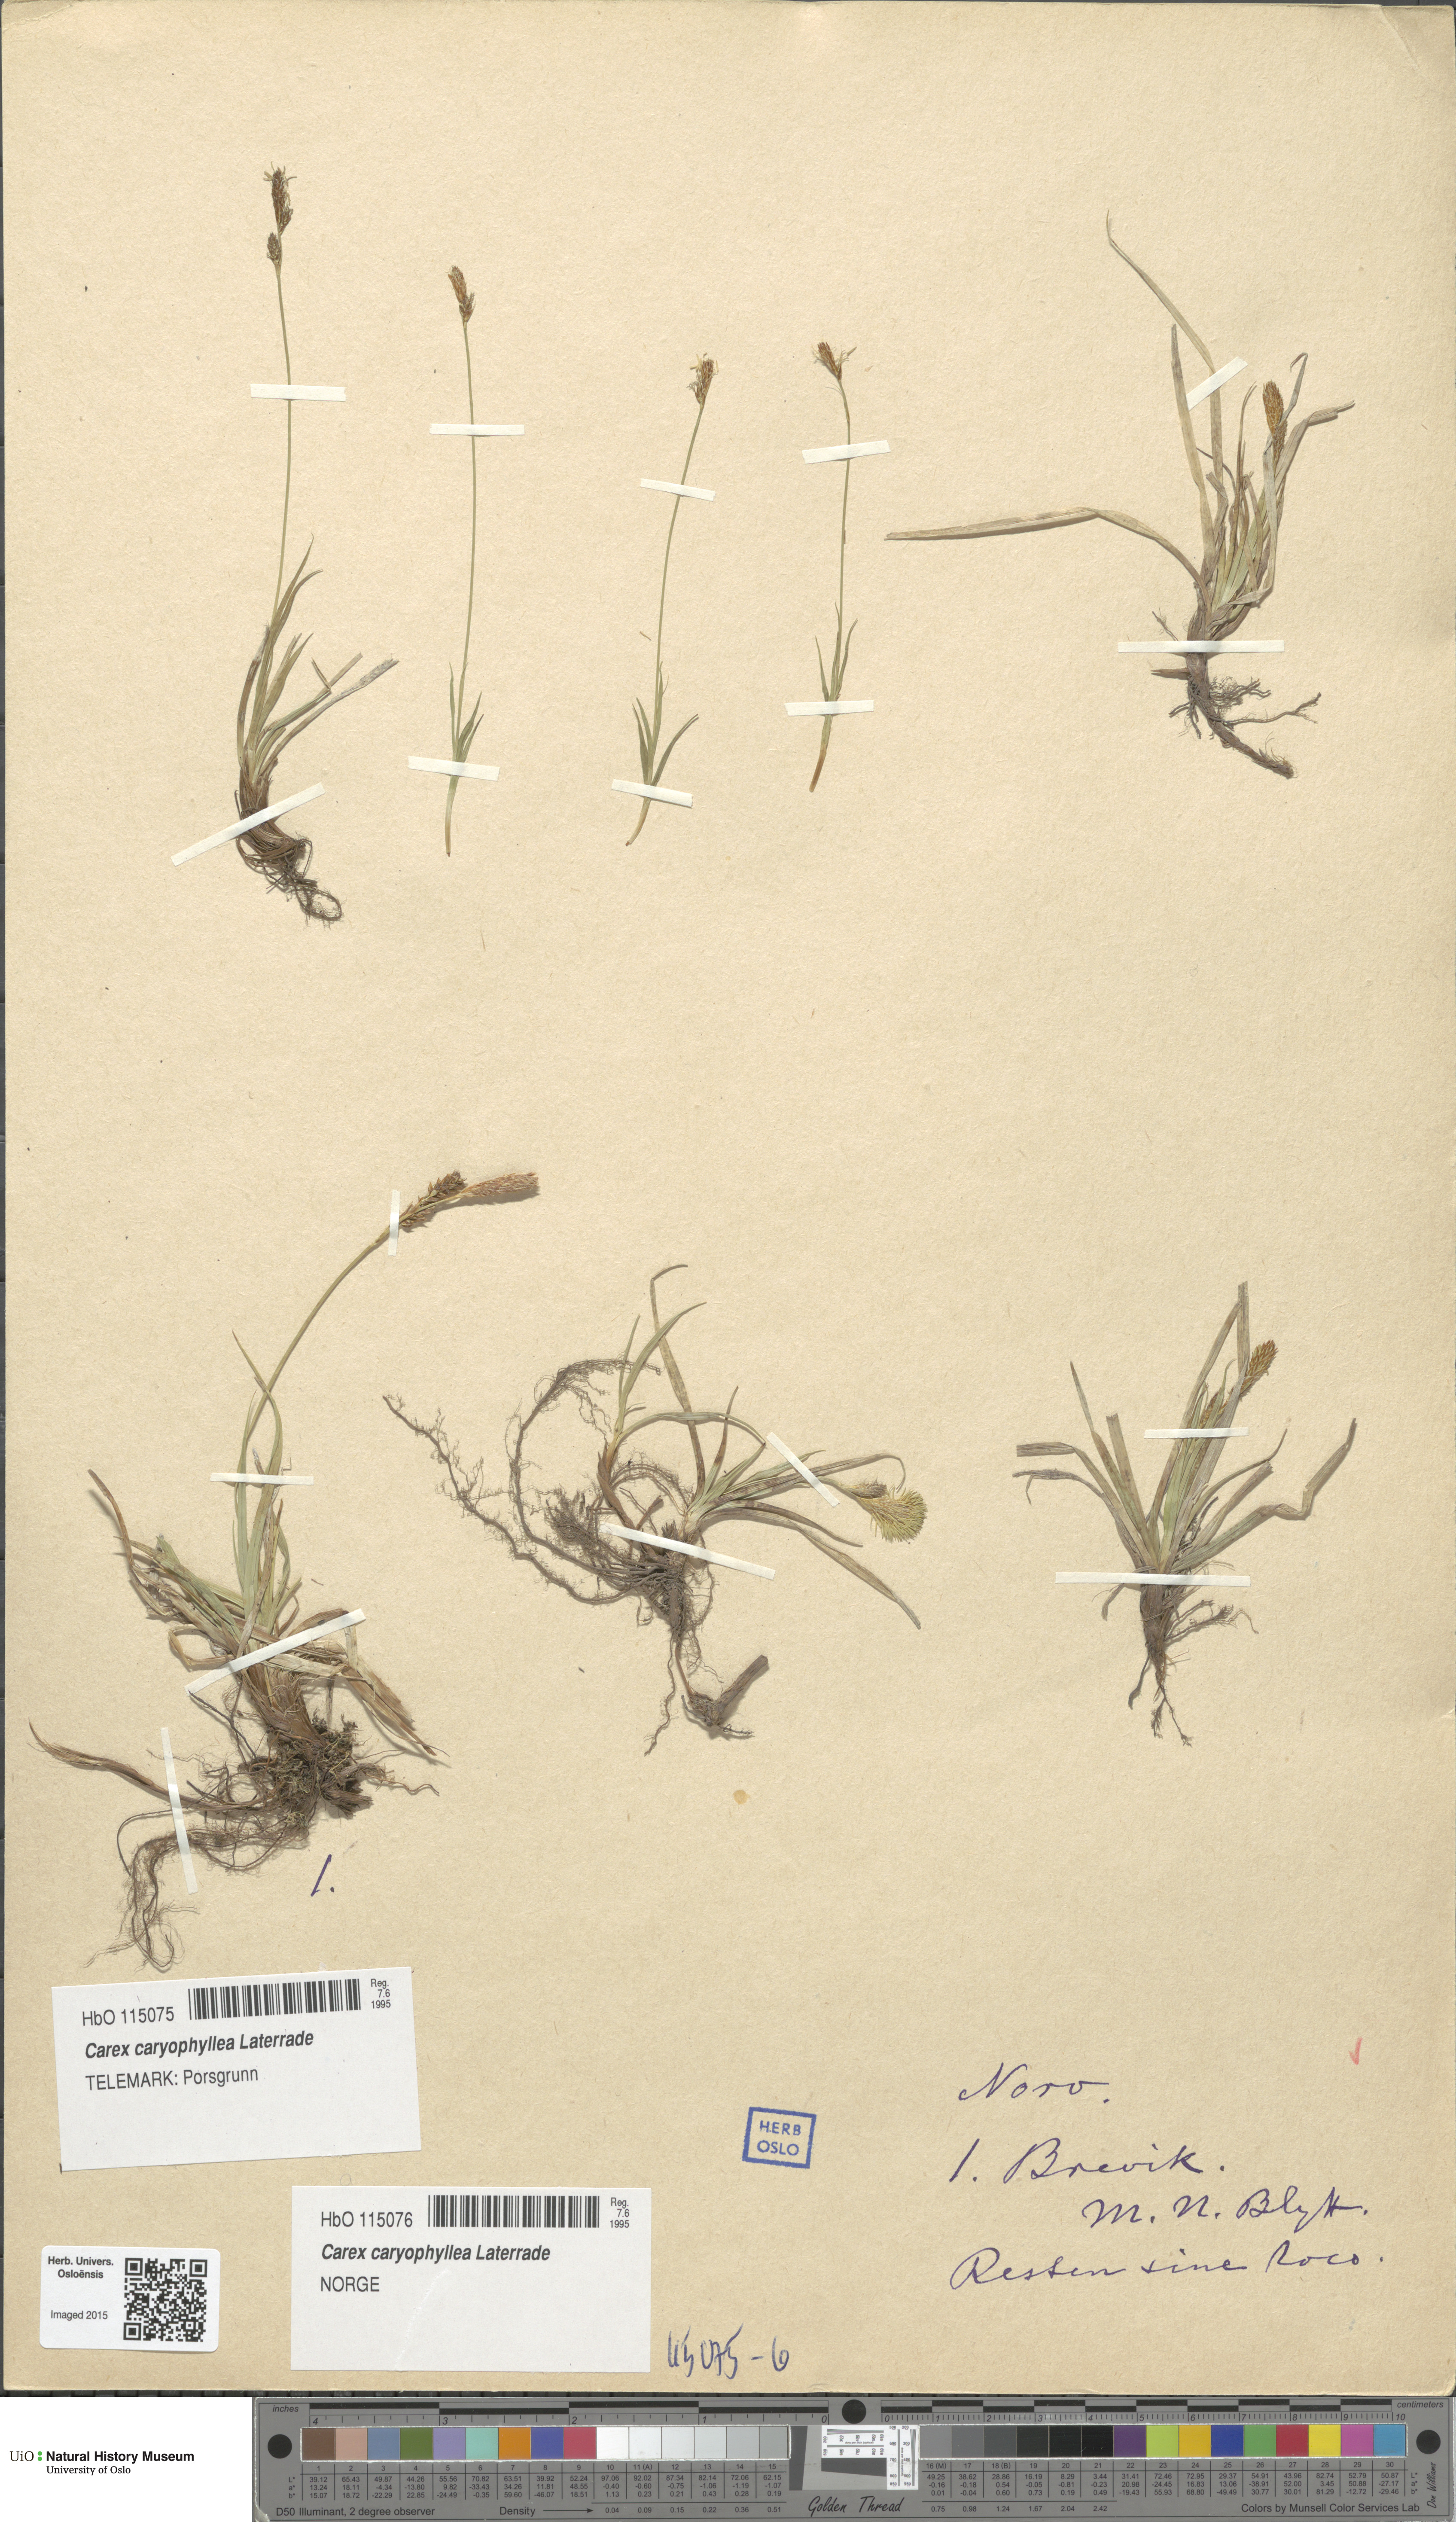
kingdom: Plantae
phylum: Tracheophyta
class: Liliopsida
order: Poales
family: Cyperaceae
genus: Carex
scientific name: Carex caryophyllea
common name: Spring sedge
